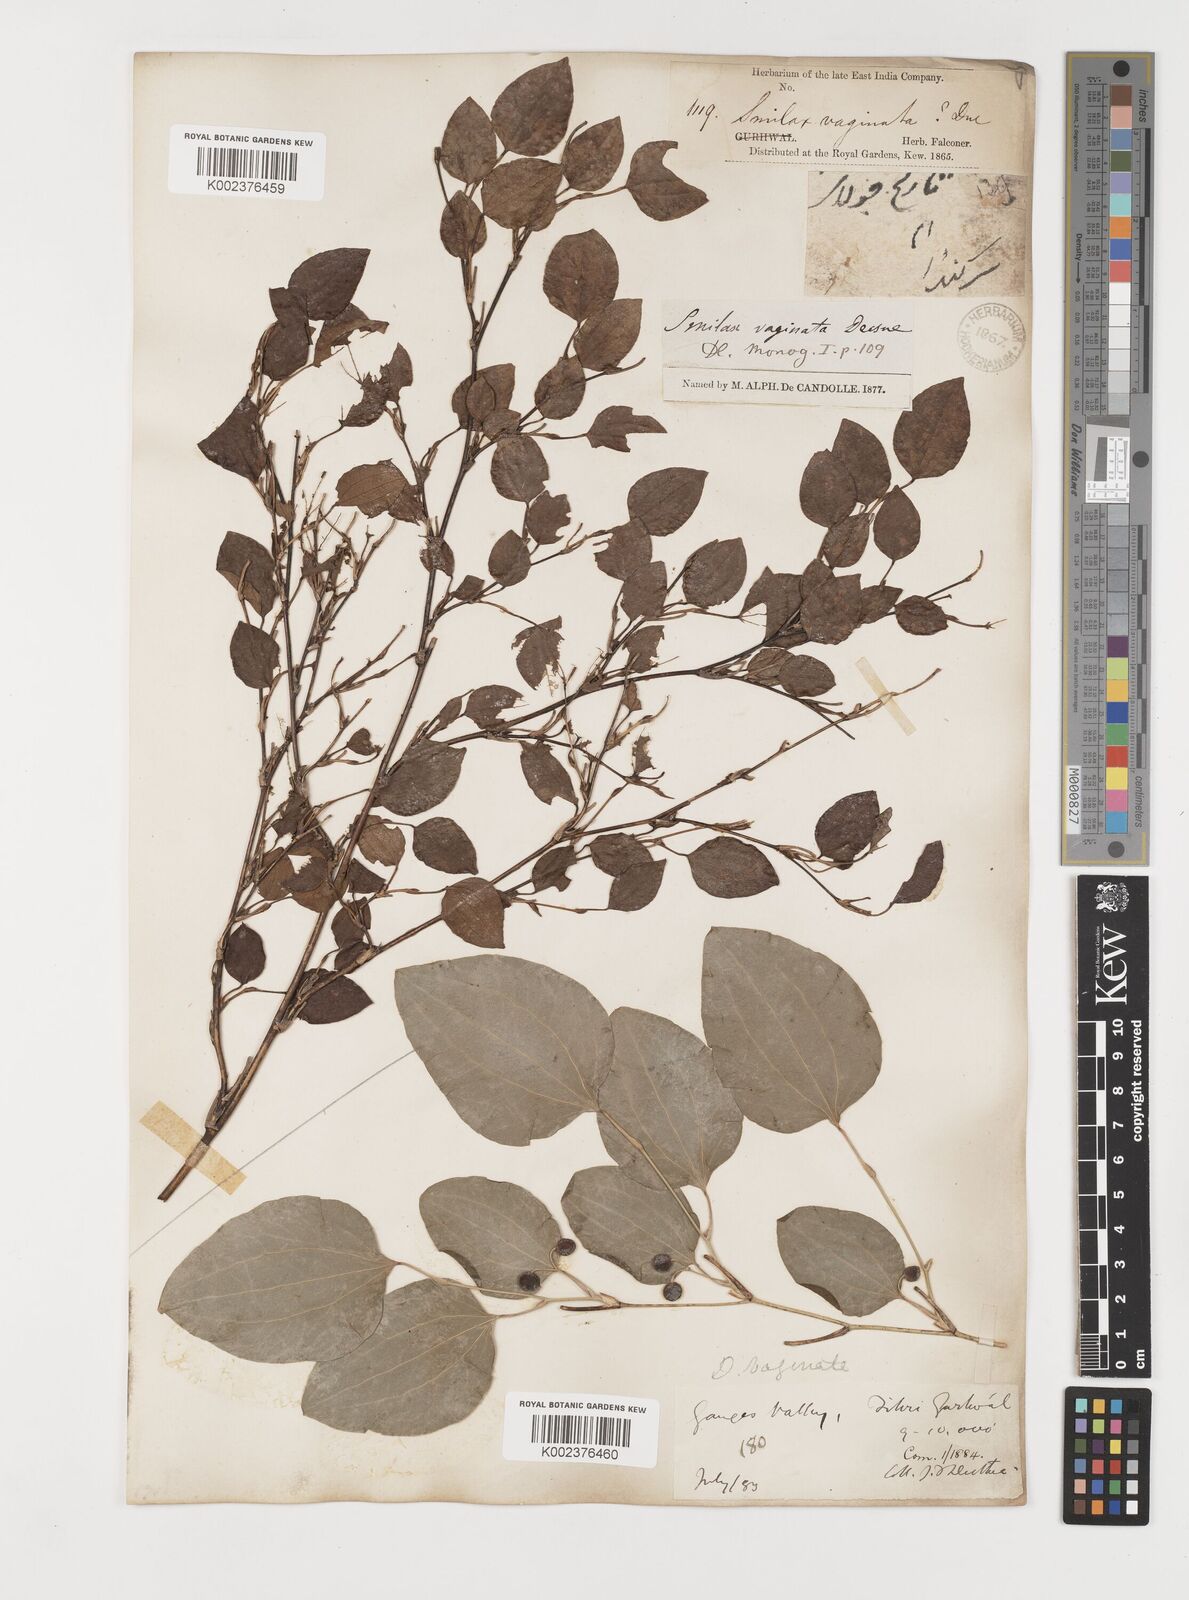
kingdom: Plantae
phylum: Tracheophyta
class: Liliopsida
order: Liliales
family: Smilacaceae
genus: Smilax
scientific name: Smilax vaginata
